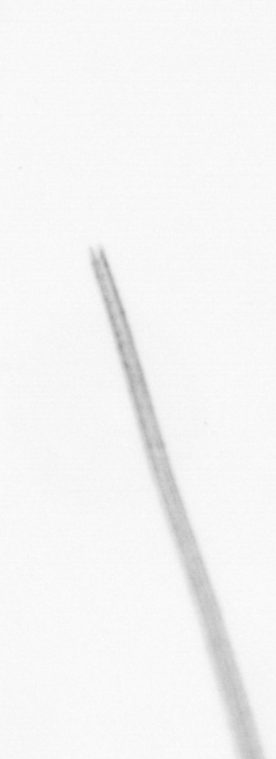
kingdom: Chromista
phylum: Ochrophyta
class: Bacillariophyceae
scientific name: Bacillariophyceae
